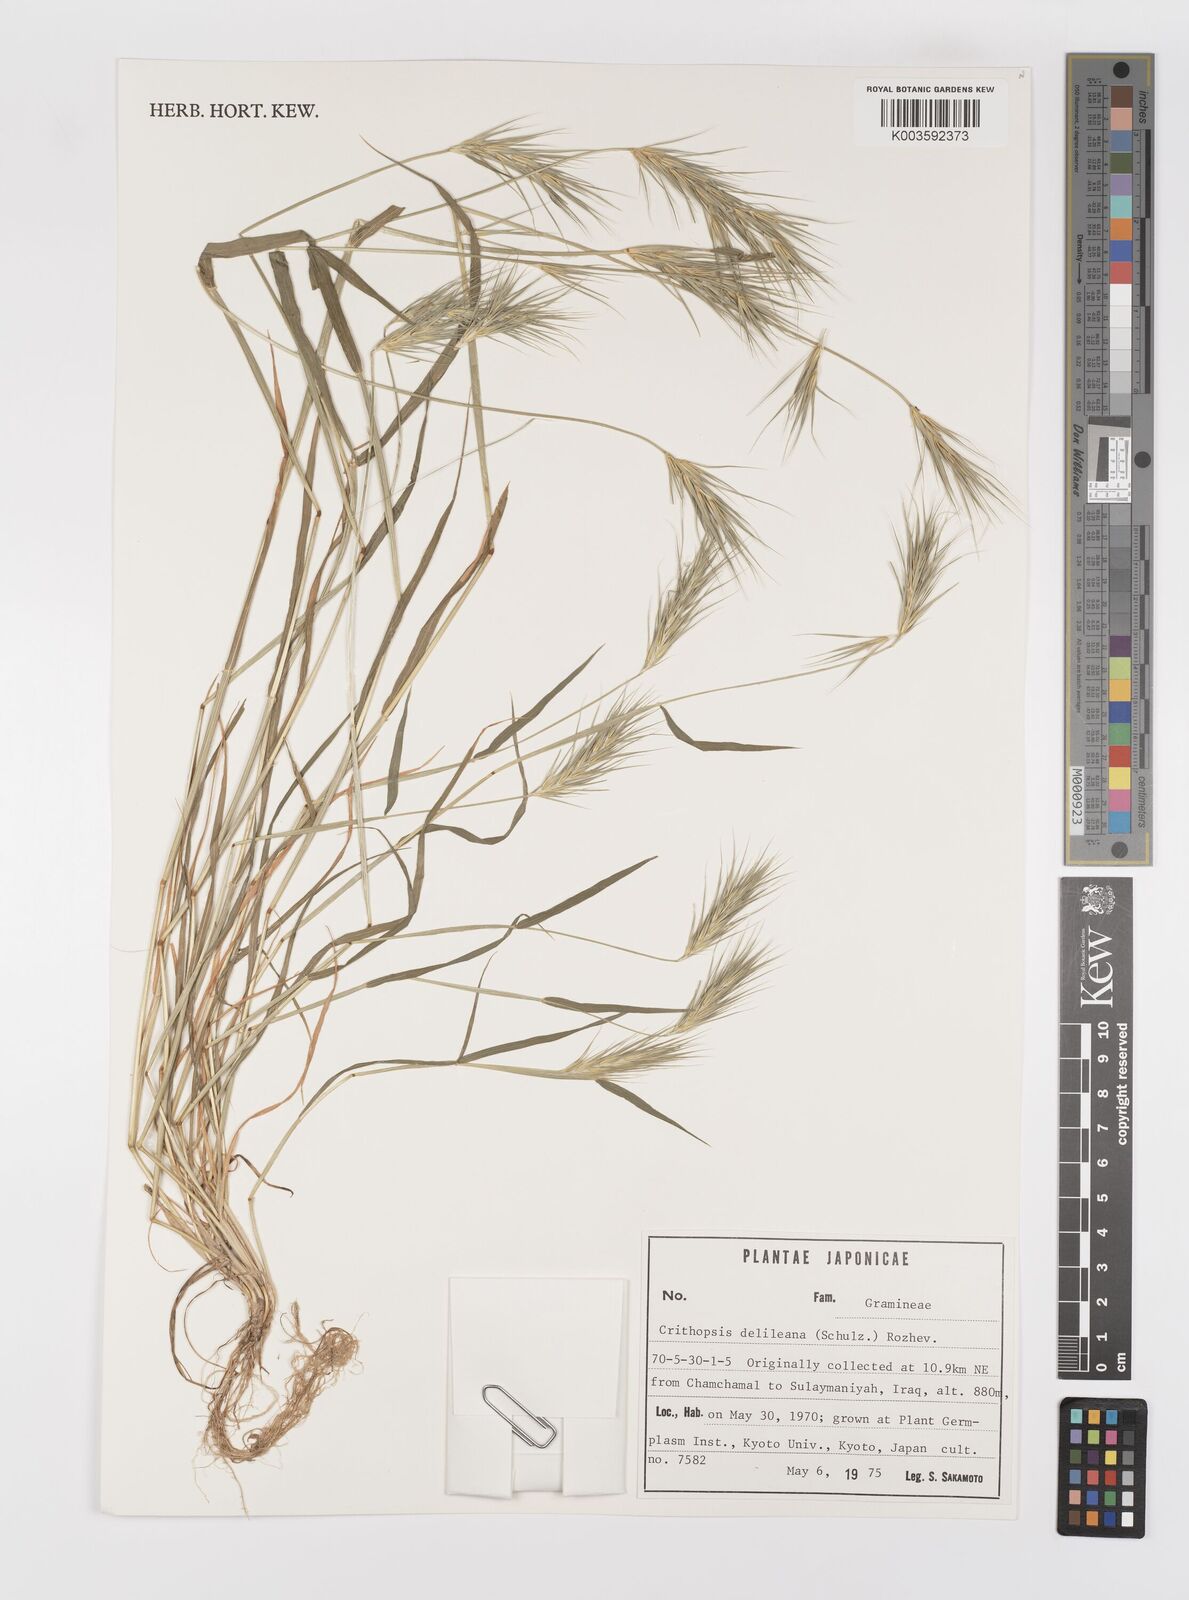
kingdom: Plantae
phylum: Tracheophyta
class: Liliopsida
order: Poales
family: Poaceae
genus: Crithopsis
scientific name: Crithopsis delileana
